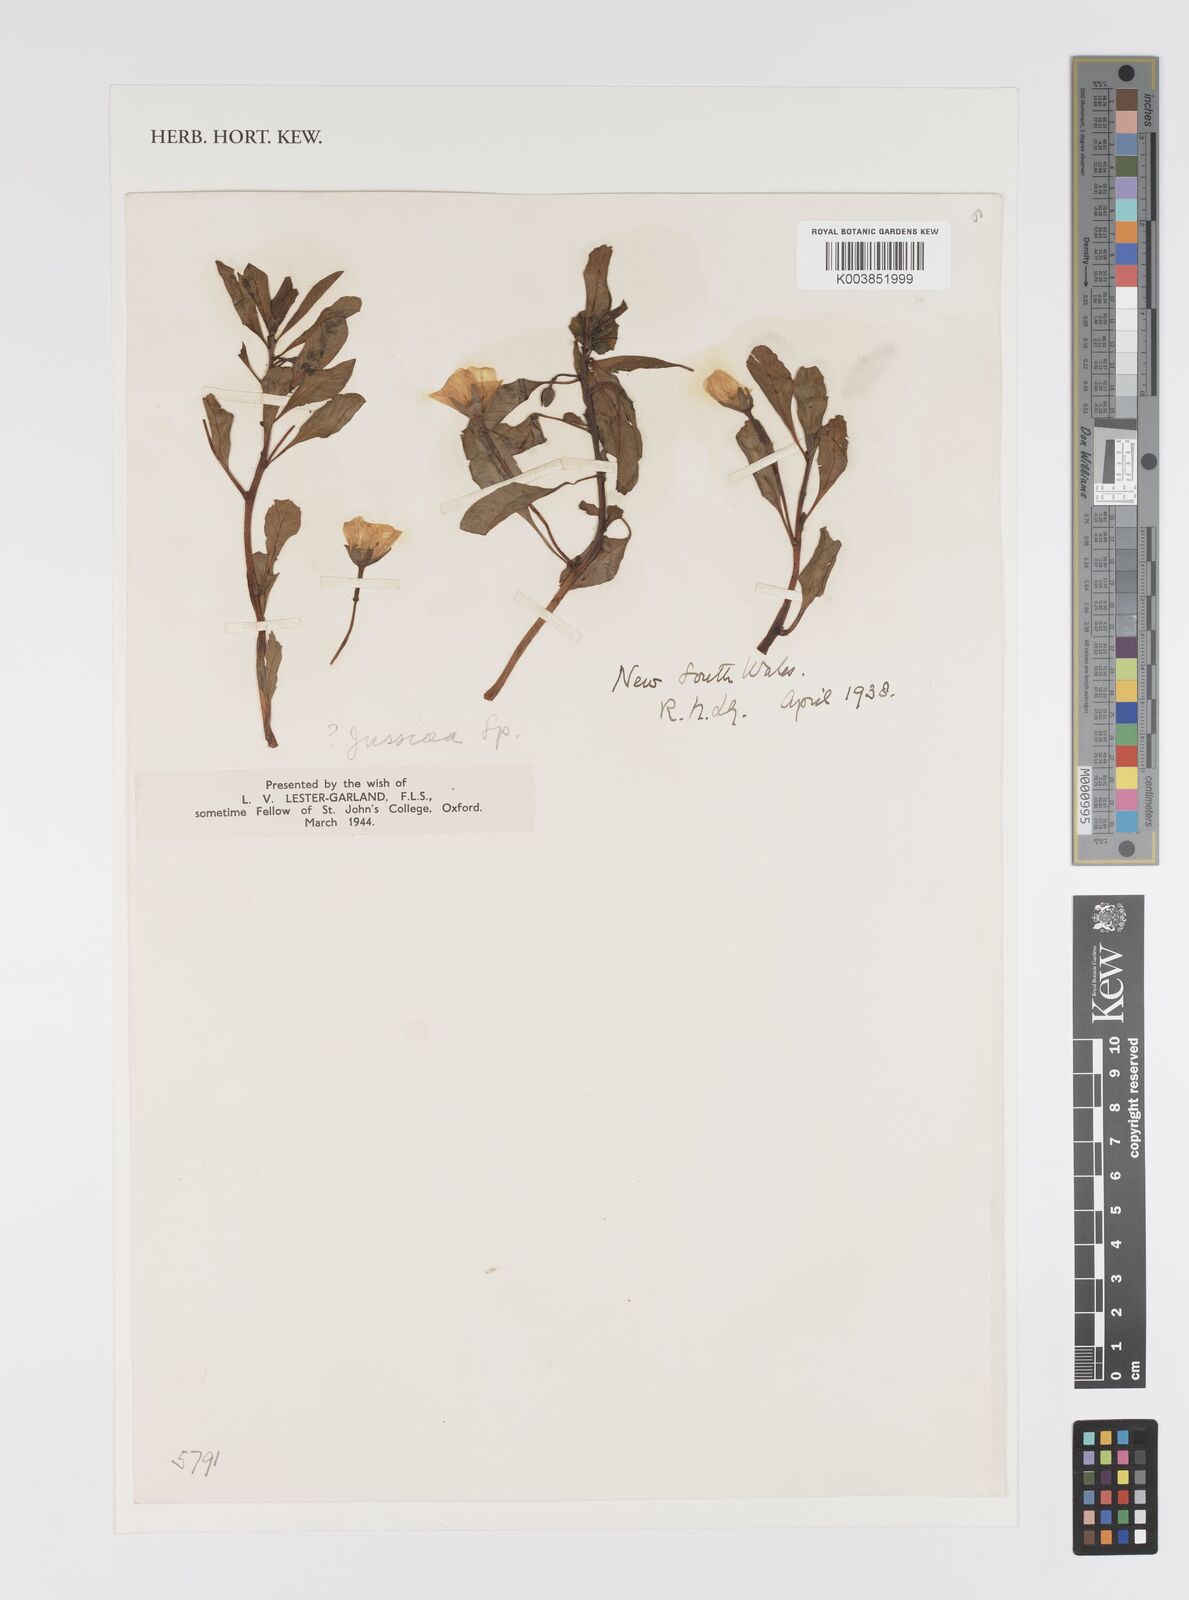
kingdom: Plantae
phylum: Tracheophyta
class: Magnoliopsida
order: Myrtales
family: Onagraceae
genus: Ludwigia
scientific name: Ludwigia peploides
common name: Floating primrose-willow
